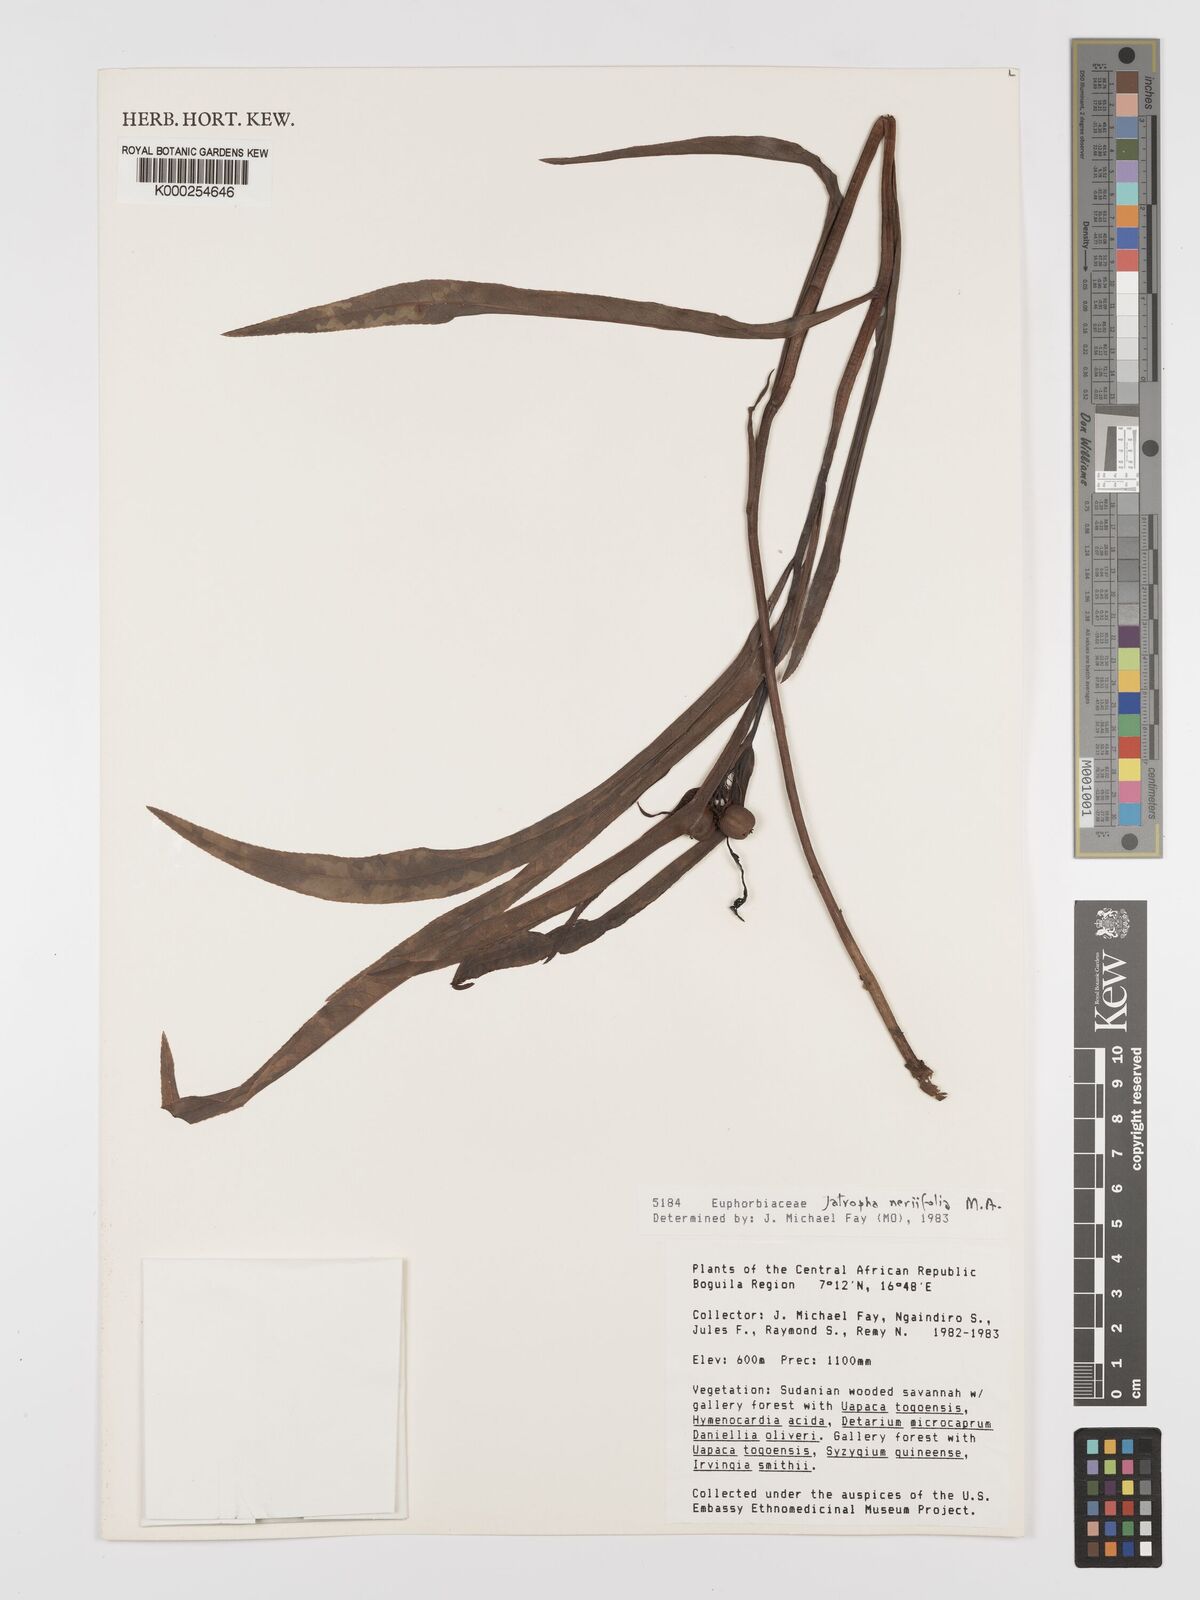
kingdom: Plantae
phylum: Tracheophyta
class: Magnoliopsida
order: Malpighiales
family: Euphorbiaceae
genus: Jatropha
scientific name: Jatropha
